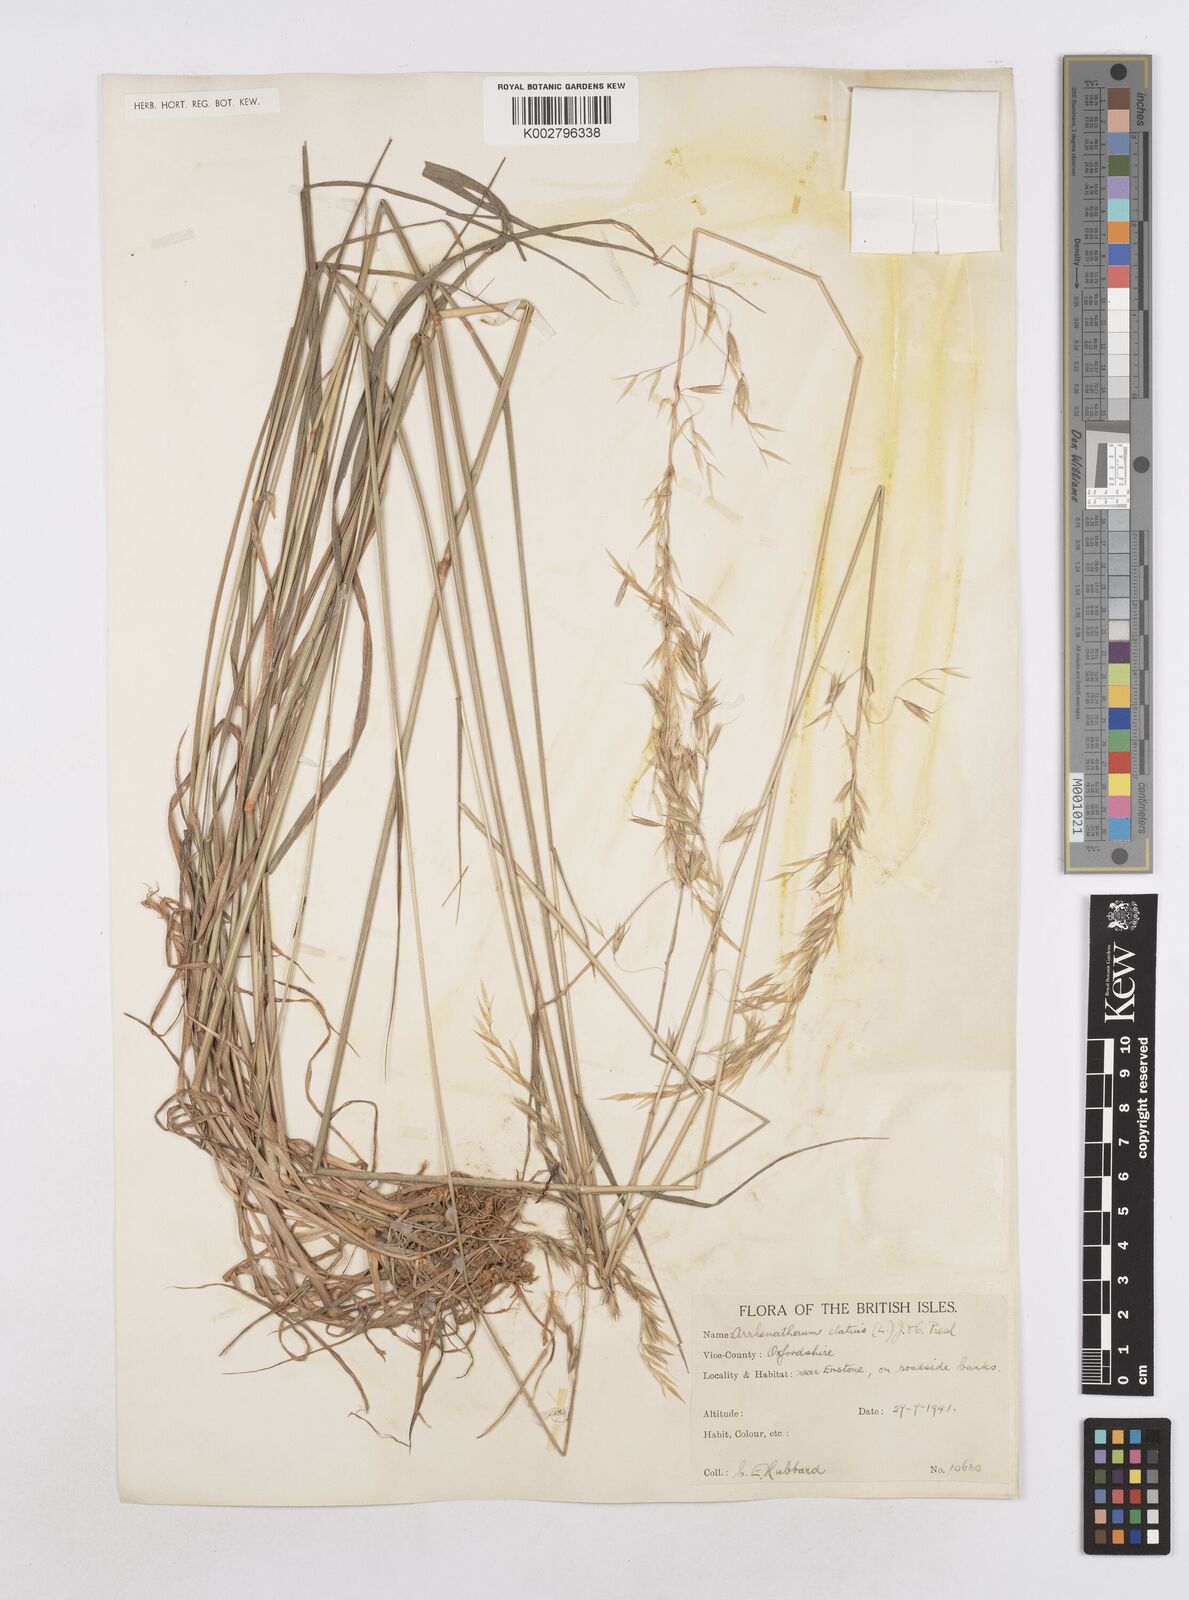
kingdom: Plantae
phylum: Tracheophyta
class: Liliopsida
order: Poales
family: Poaceae
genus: Arrhenatherum
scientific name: Arrhenatherum elatius
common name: Tall oatgrass
